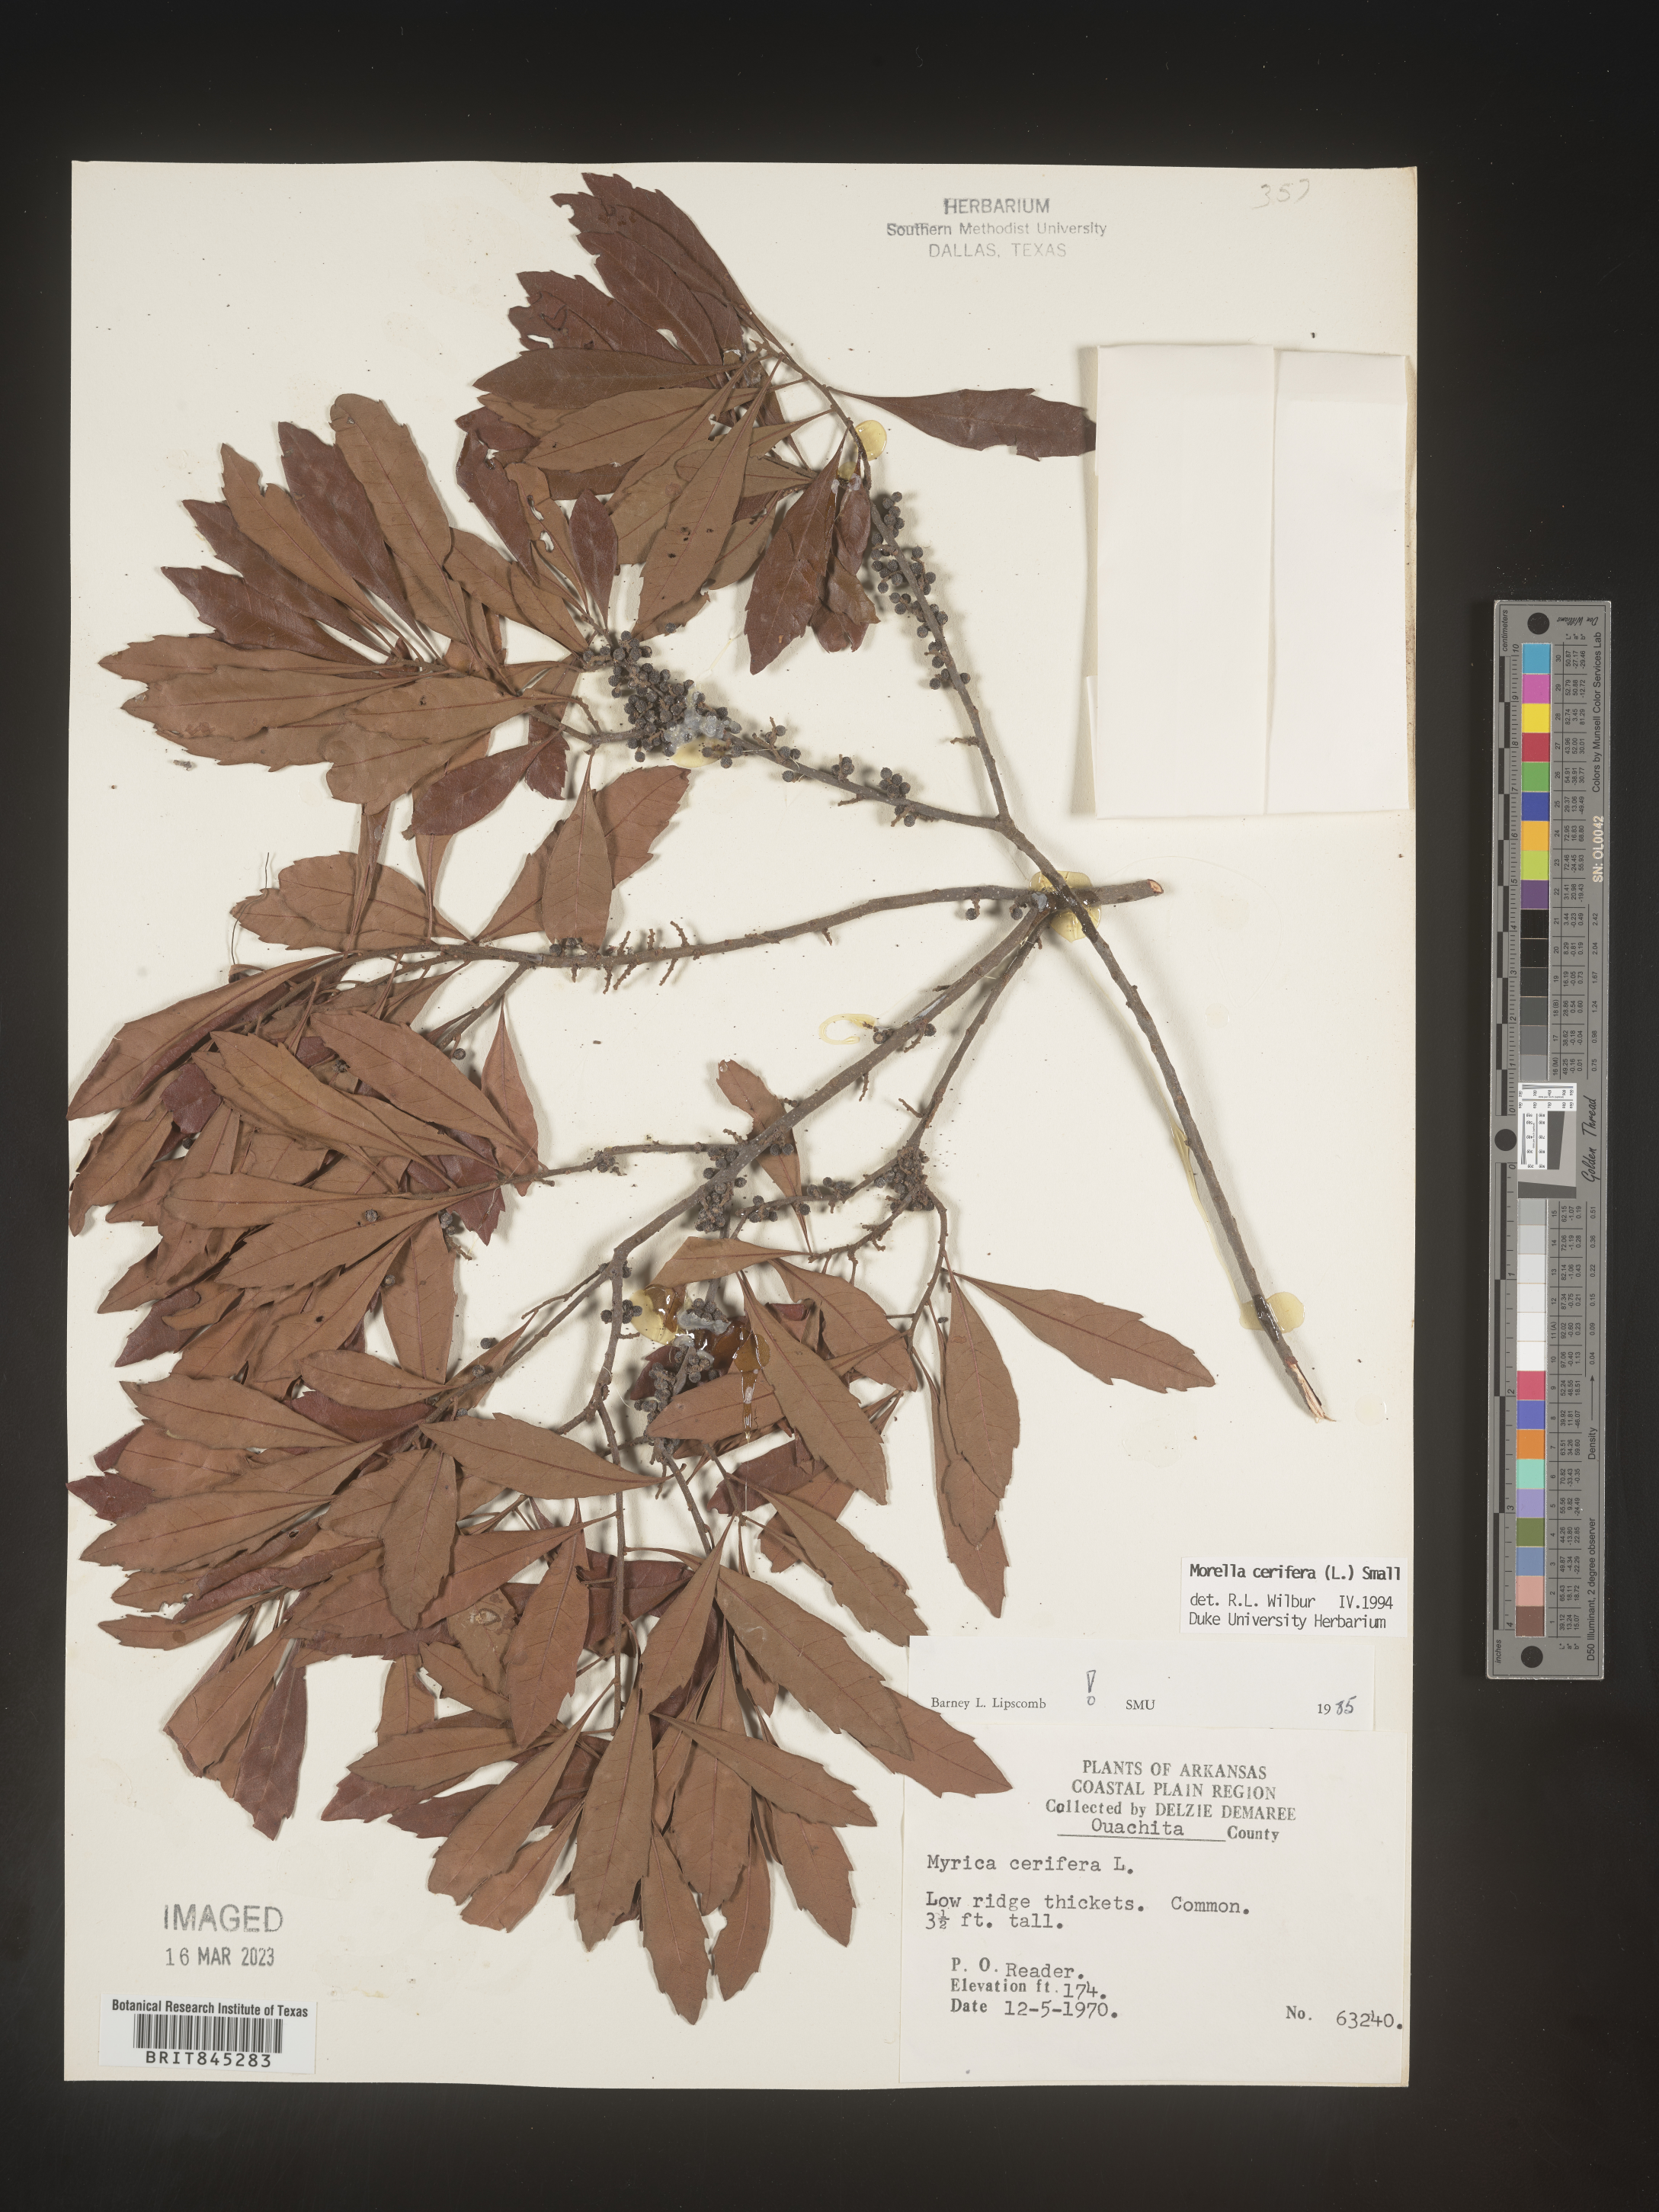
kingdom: Plantae
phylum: Tracheophyta
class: Magnoliopsida
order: Fagales
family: Myricaceae
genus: Morella
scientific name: Morella cerifera
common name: Wax myrtle
